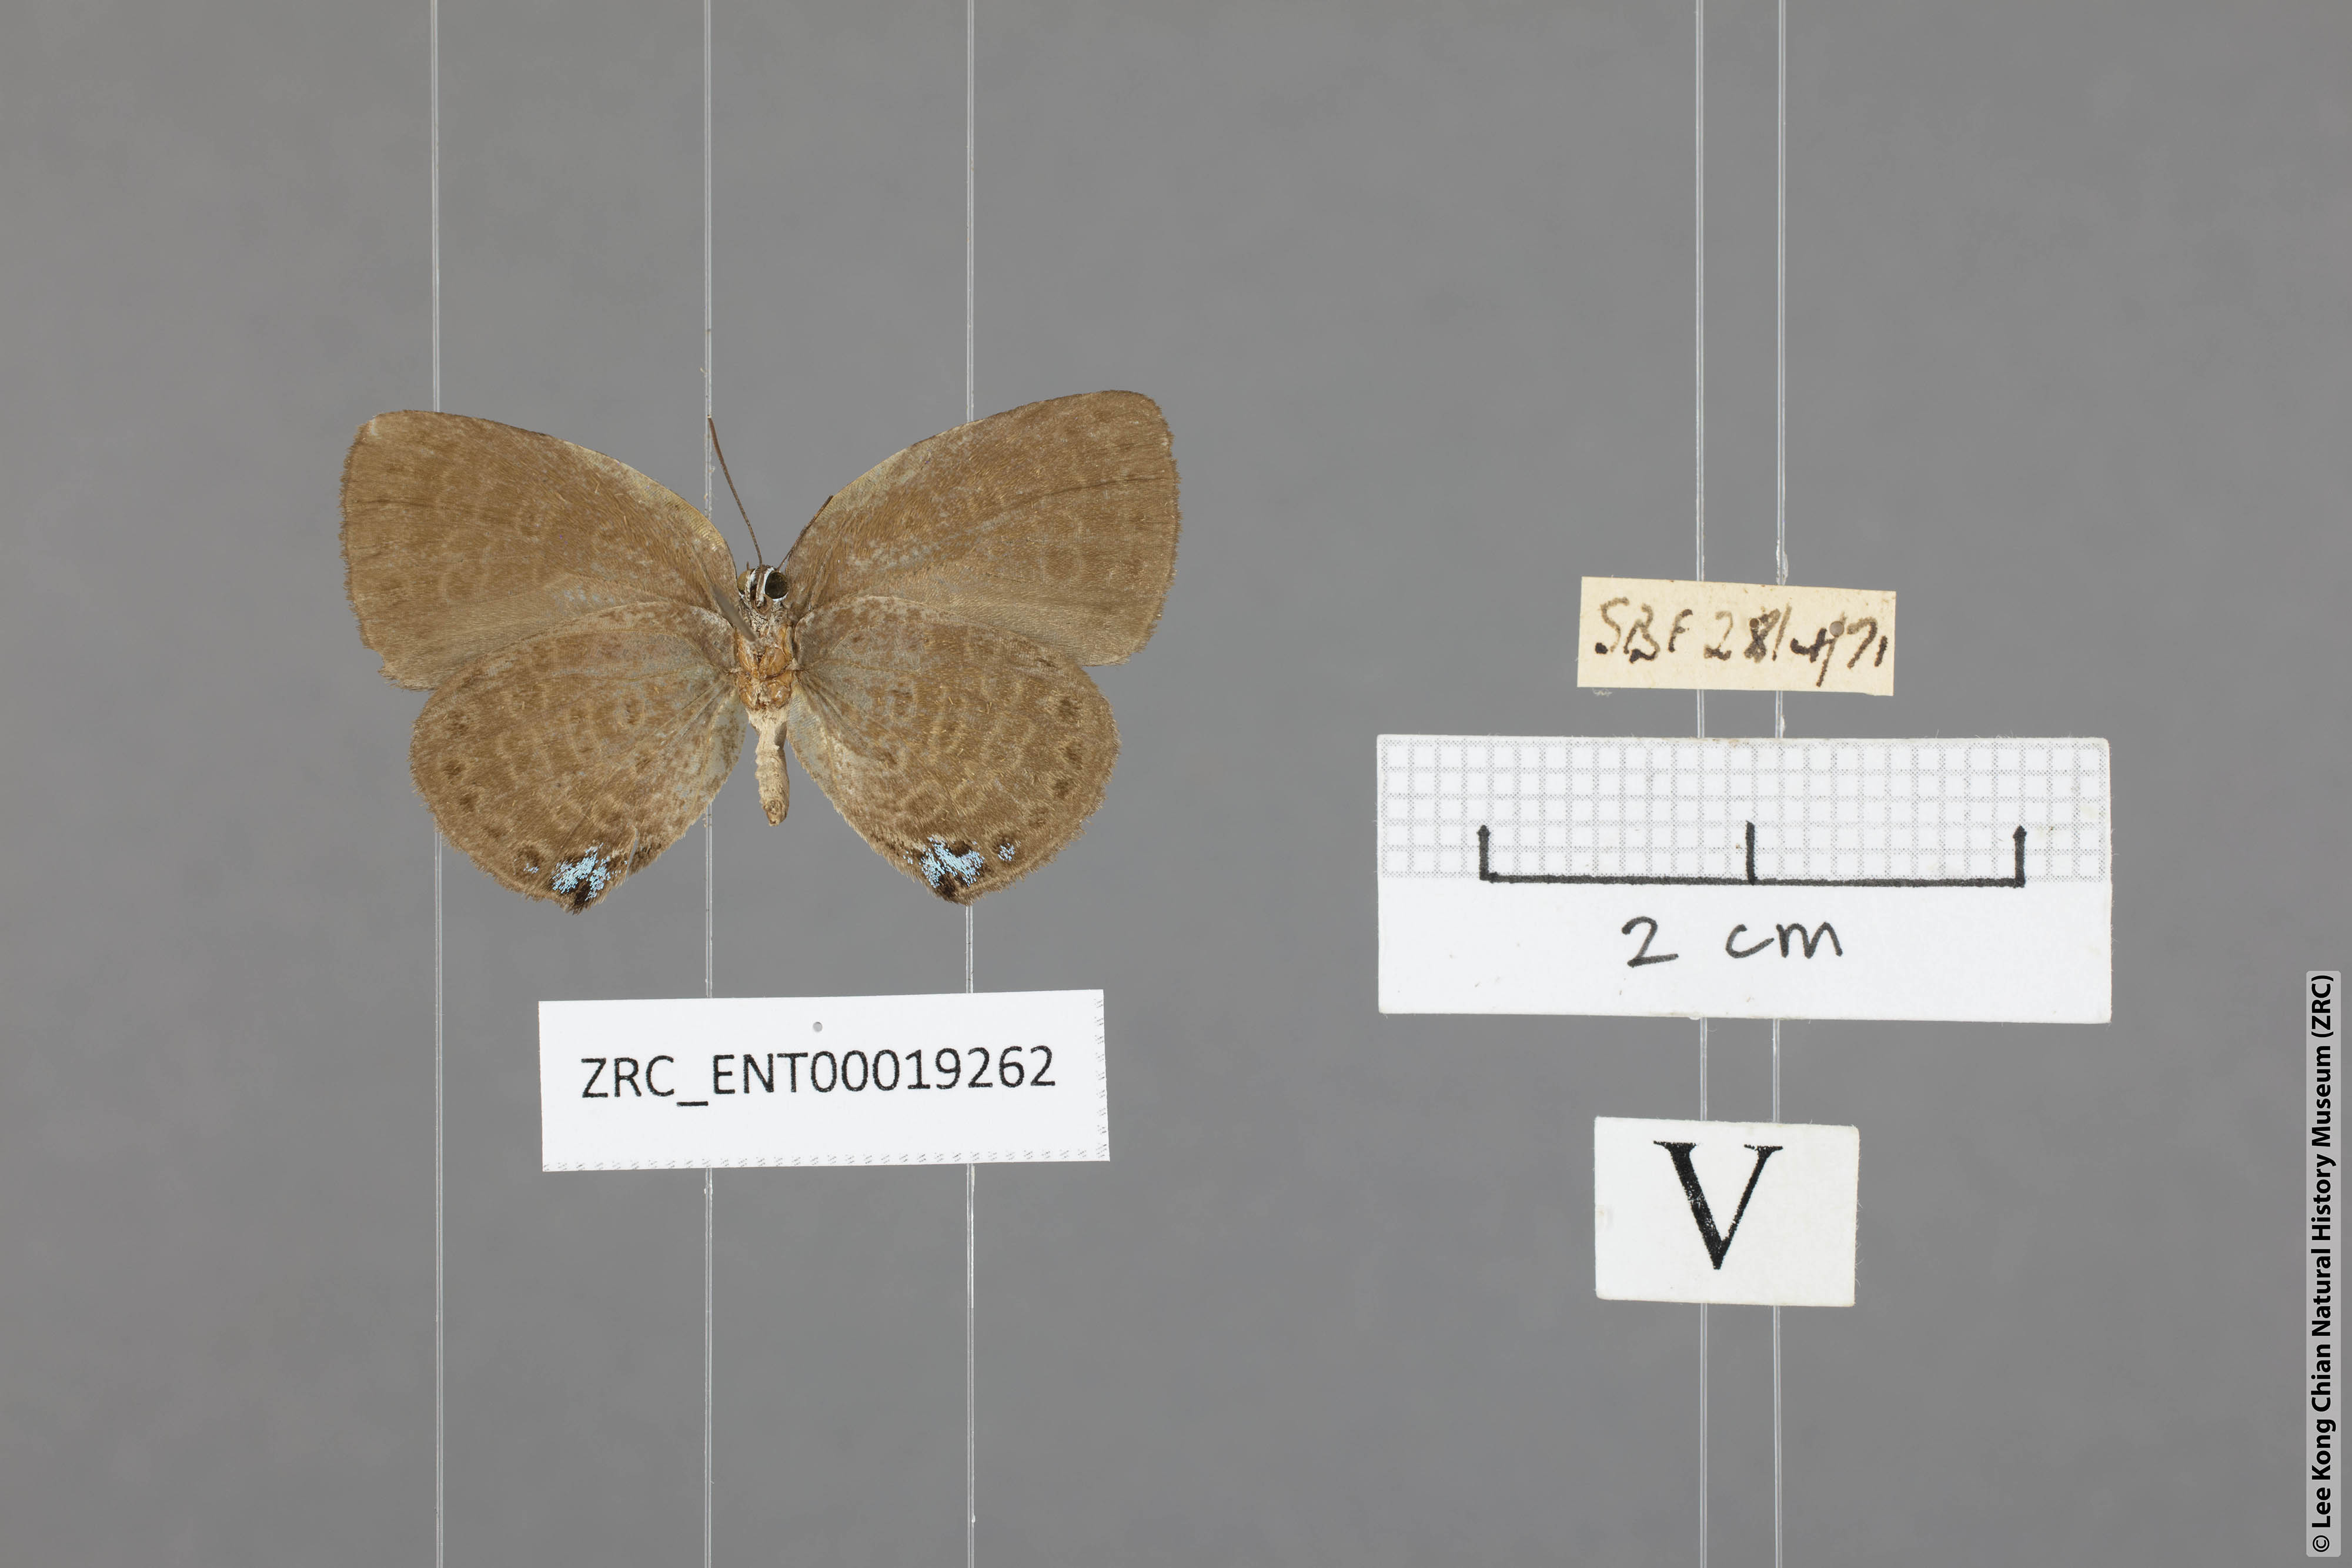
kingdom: Animalia
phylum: Arthropoda
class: Insecta
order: Lepidoptera
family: Lycaenidae
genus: Arhopala
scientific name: Arhopala avathina
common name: Lunulate yellow oakblue
